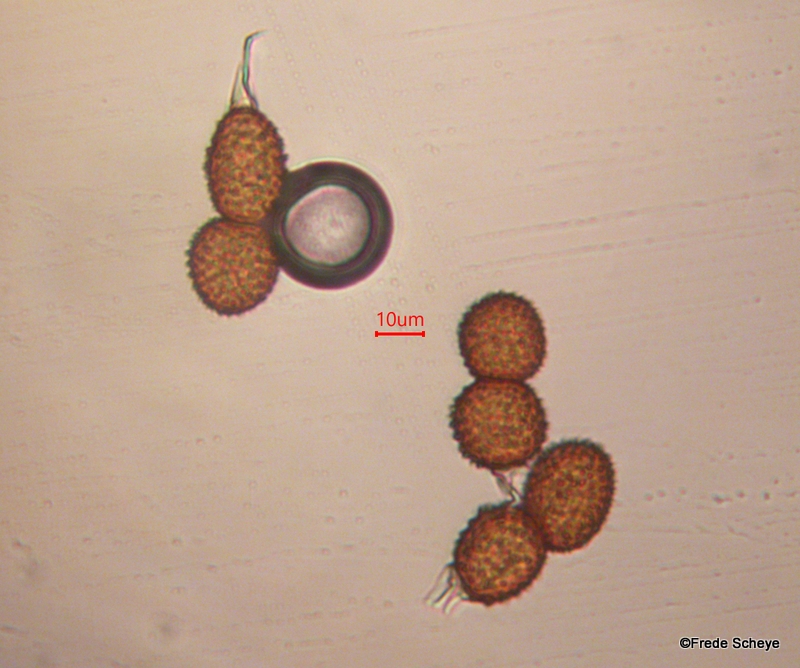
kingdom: Fungi
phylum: Basidiomycota
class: Pucciniomycetes
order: Pucciniales
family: Tranzscheliaceae
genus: Tranzschelia
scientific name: Tranzschelia anemones
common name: anemone-knæksporerust
